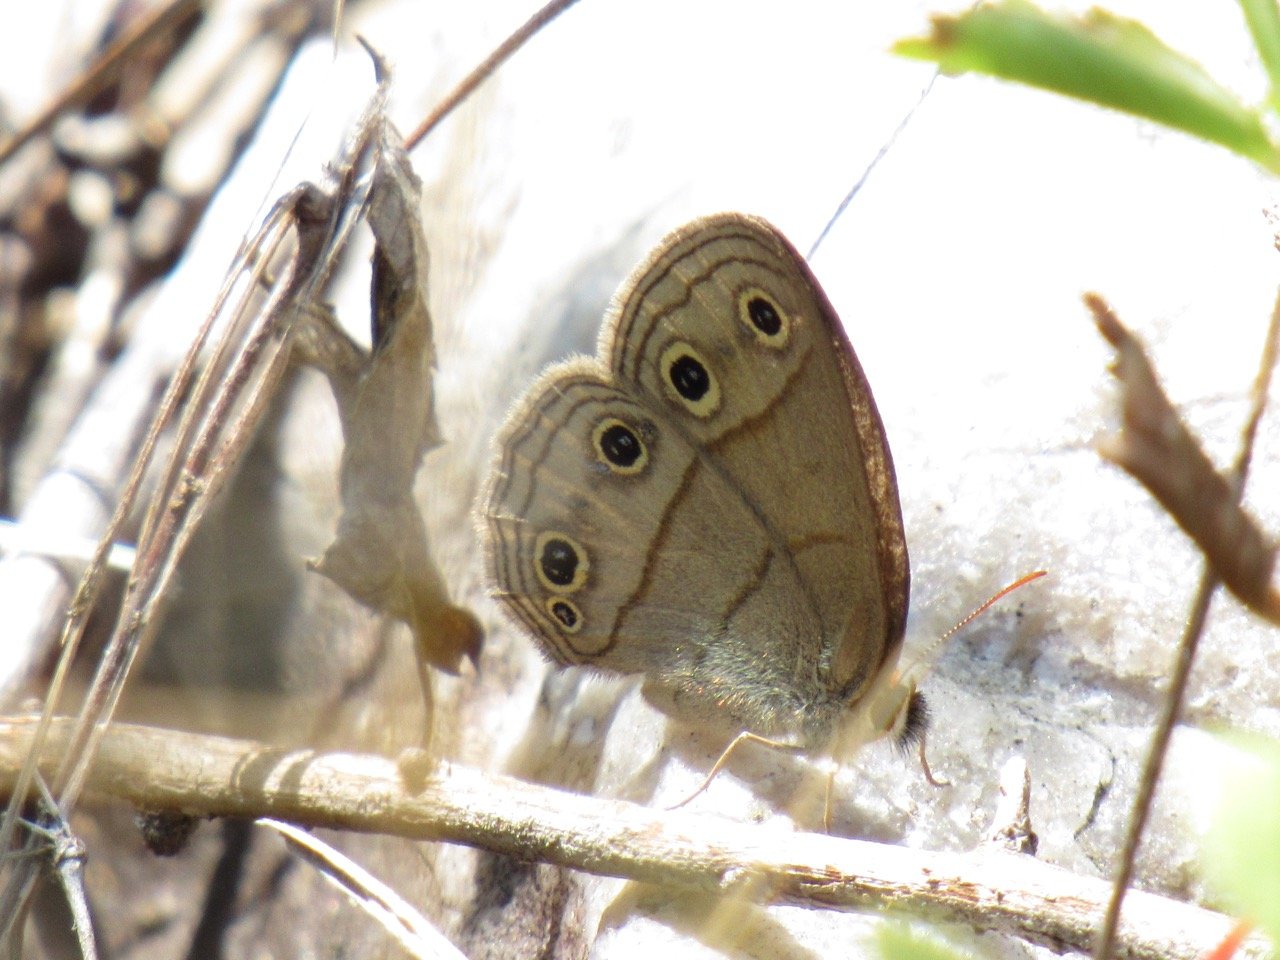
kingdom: Animalia
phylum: Arthropoda
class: Insecta
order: Lepidoptera
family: Nymphalidae
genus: Euptychia
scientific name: Euptychia cymela
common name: Little Wood Satyr
